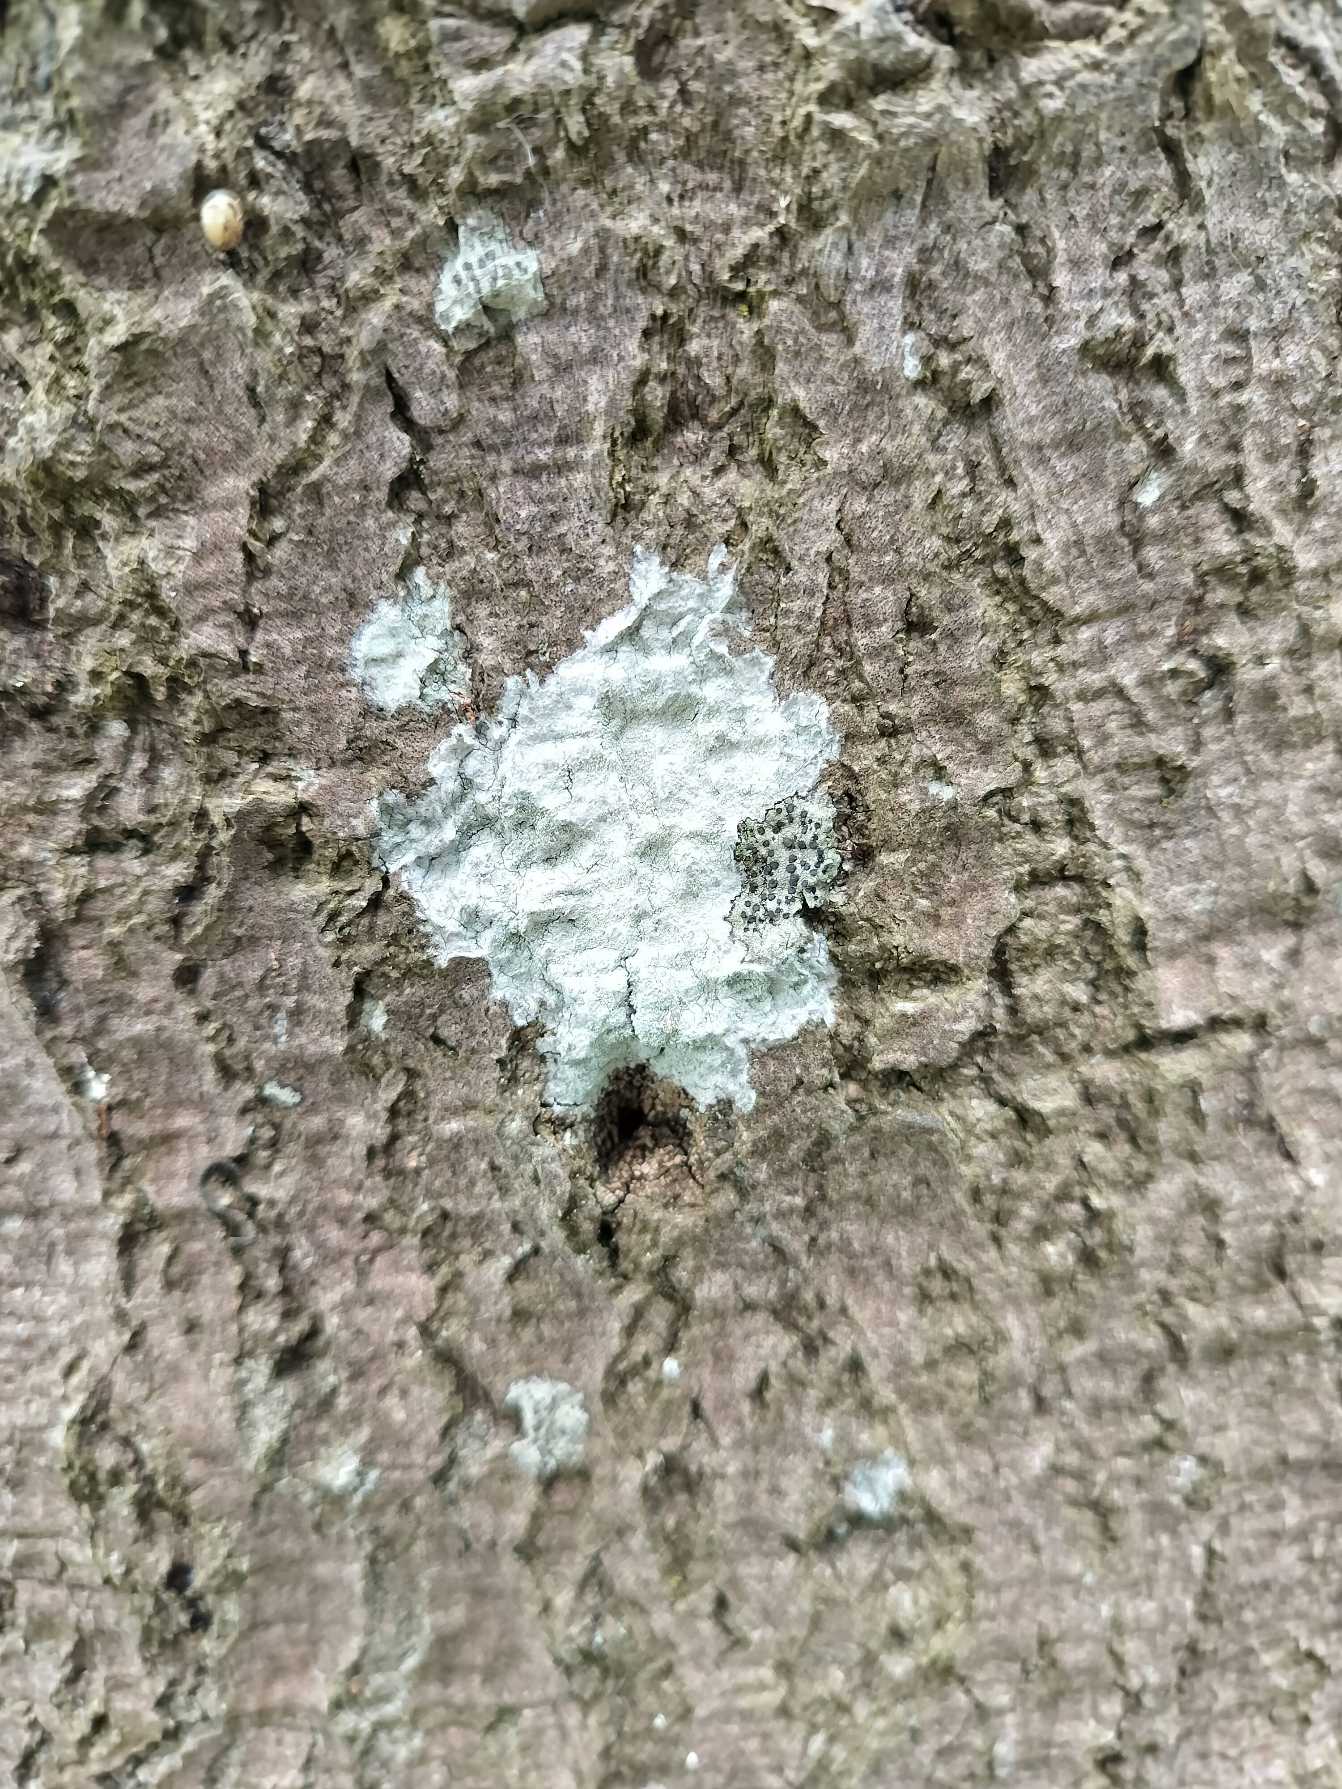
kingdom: Fungi
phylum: Ascomycota
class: Lecanoromycetes
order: Ostropales
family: Phlyctidaceae
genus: Phlyctis
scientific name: Phlyctis argena
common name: Almindelig sølvlav
